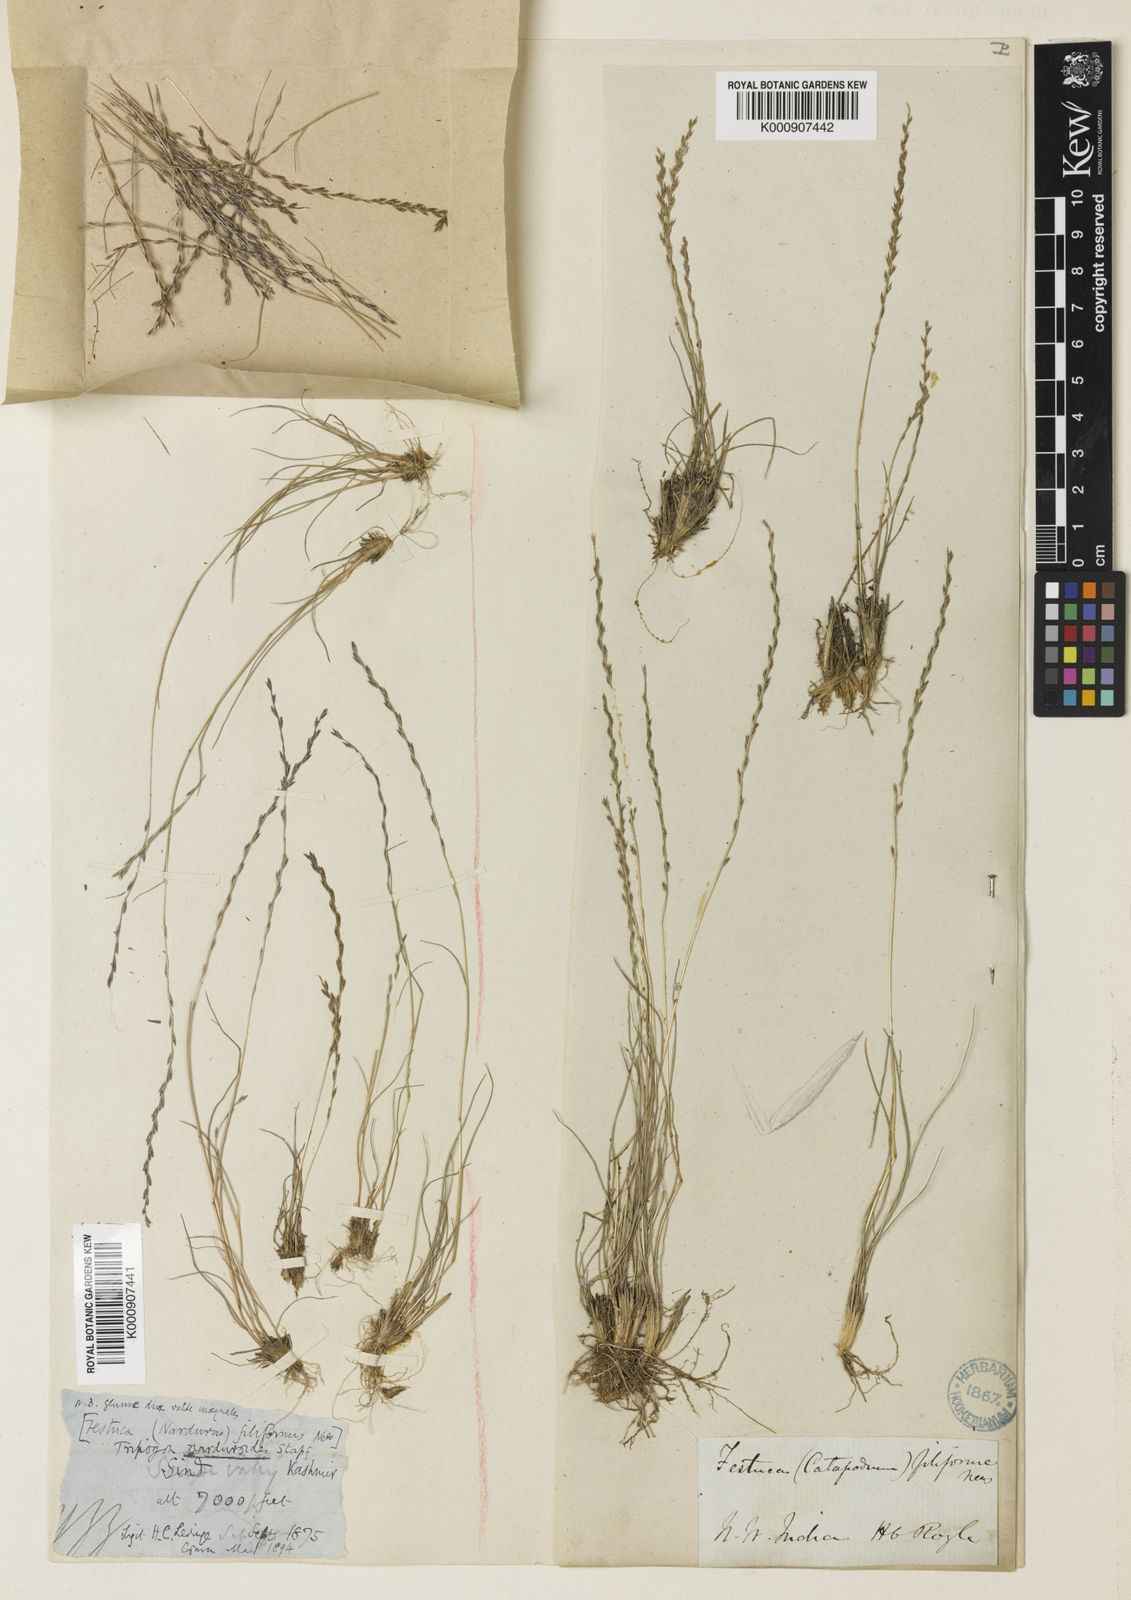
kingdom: Plantae
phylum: Tracheophyta
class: Liliopsida
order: Poales
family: Poaceae
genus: Tripogon
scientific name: Tripogon purpurascens
